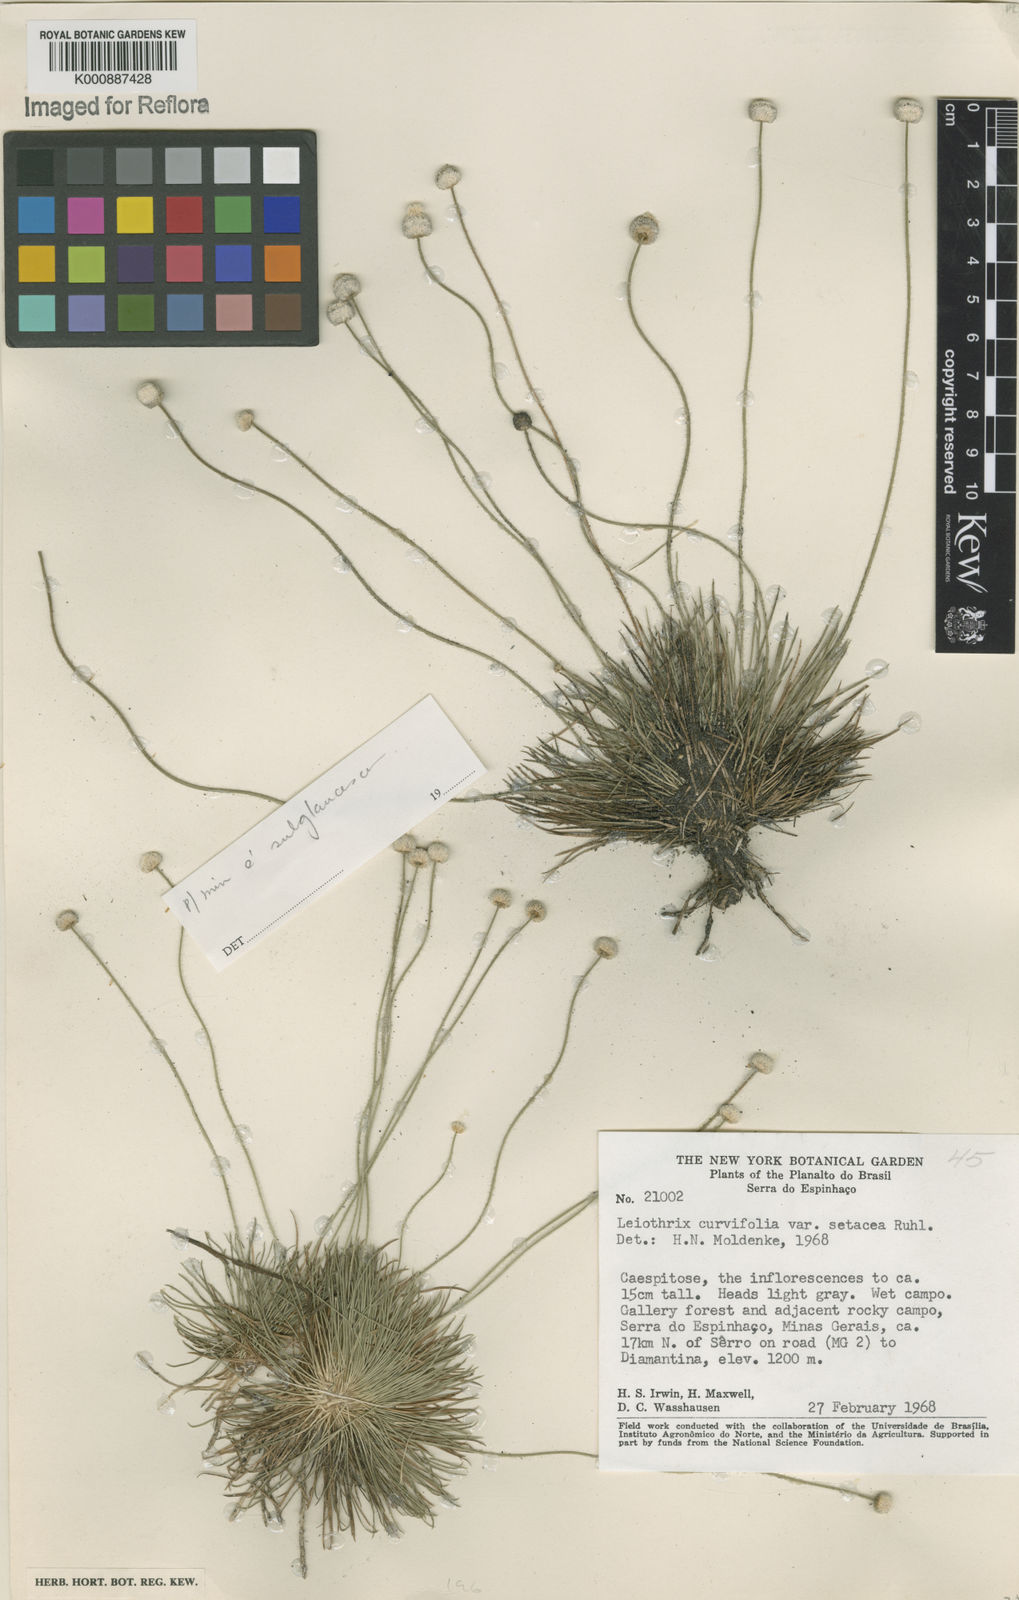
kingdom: Plantae
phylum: Tracheophyta
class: Liliopsida
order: Poales
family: Eriocaulaceae
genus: Leiothrix
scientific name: Leiothrix mucronata
